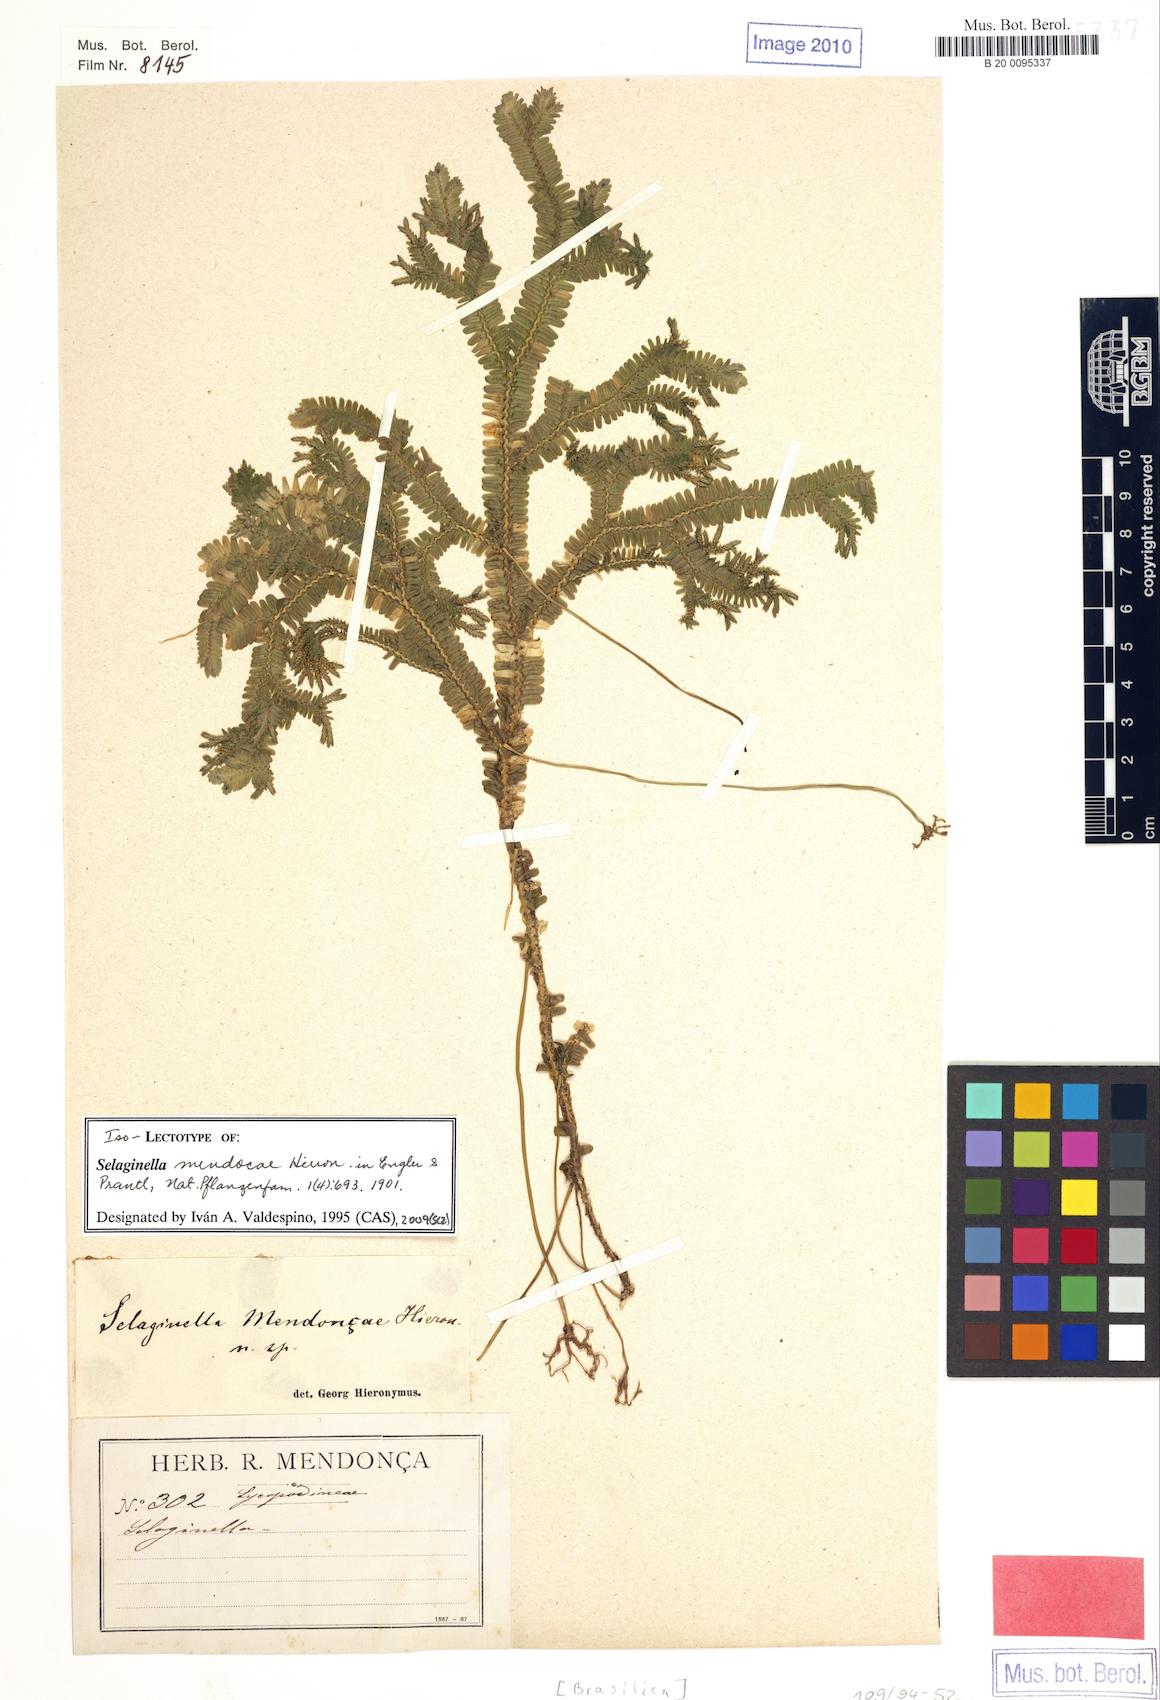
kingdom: Plantae
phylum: Tracheophyta
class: Lycopodiopsida
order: Selaginellales
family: Selaginellaceae
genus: Selaginella
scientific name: Selaginella mendoncae
